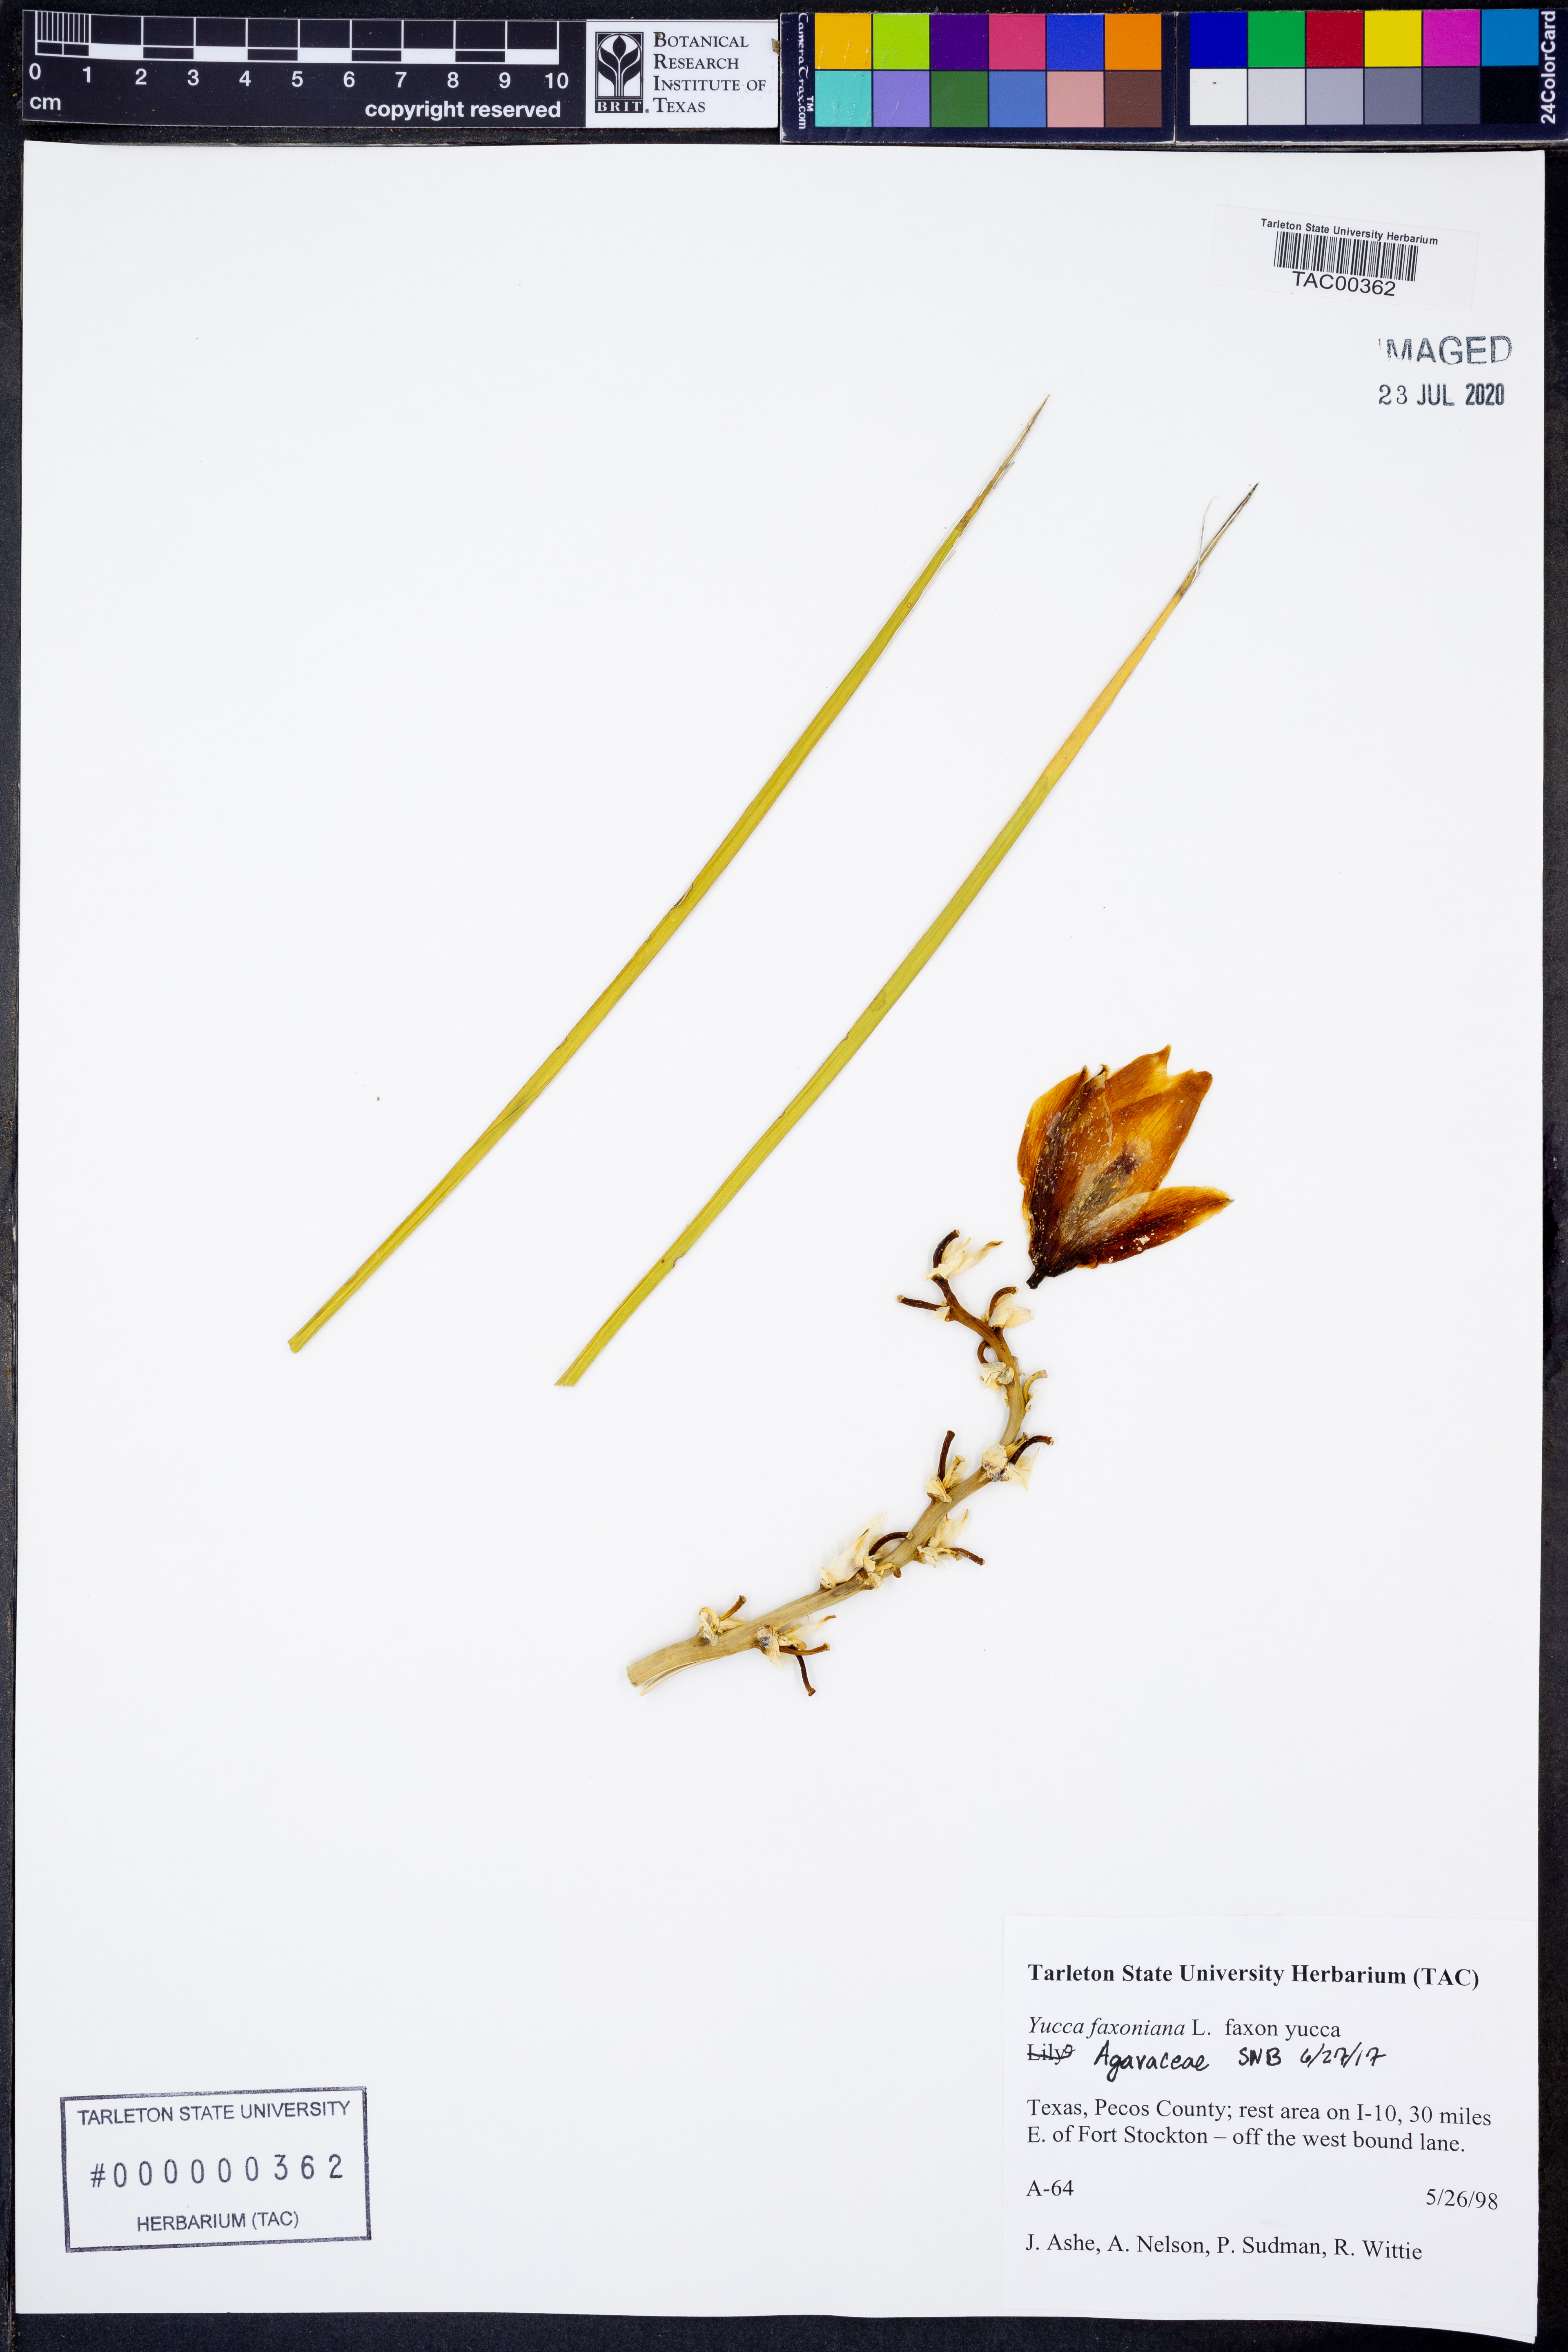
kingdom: Plantae
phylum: Tracheophyta
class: Liliopsida
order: Asparagales
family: Asparagaceae
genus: Yucca
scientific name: Yucca faxoniana
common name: Spanish dagger
